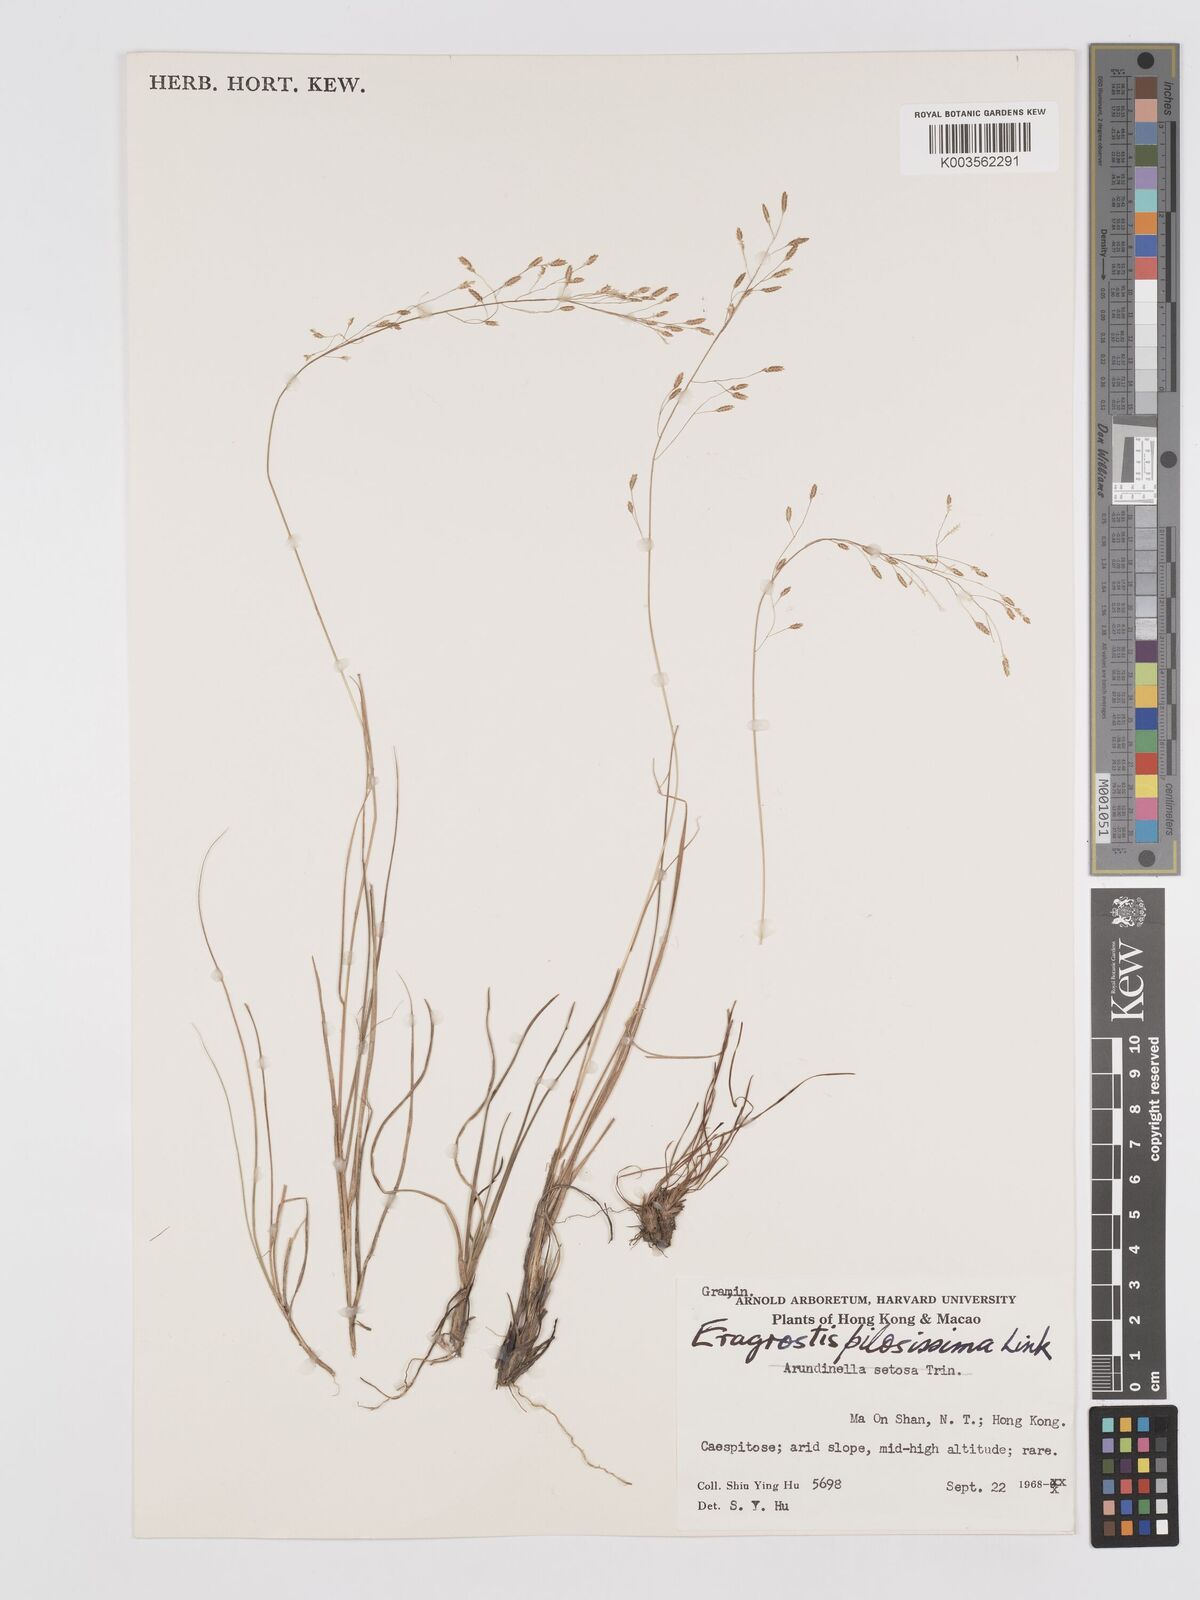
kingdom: Plantae
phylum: Tracheophyta
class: Liliopsida
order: Poales
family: Poaceae
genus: Eragrostis
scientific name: Eragrostis pilosissima
